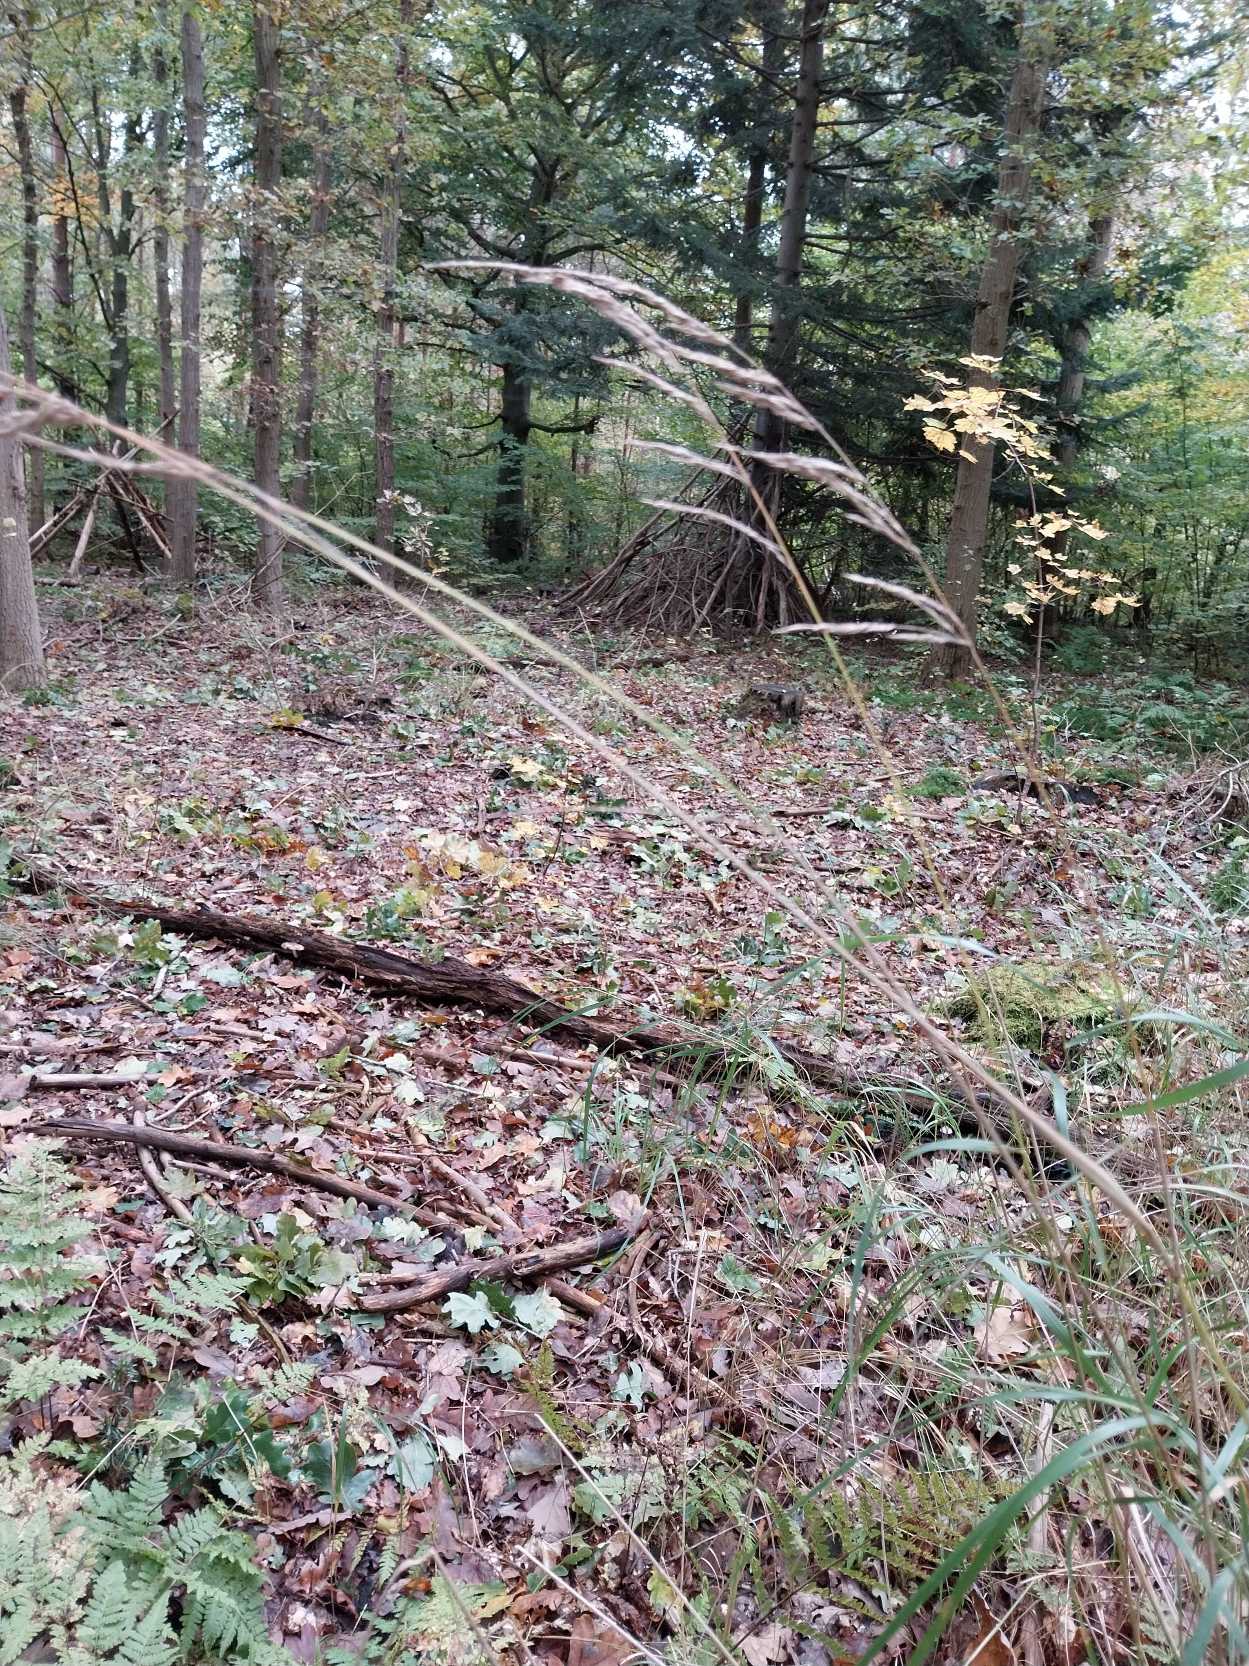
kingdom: Plantae
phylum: Tracheophyta
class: Liliopsida
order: Poales
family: Poaceae
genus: Calamagrostis
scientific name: Calamagrostis canescens
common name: Eng-rørhvene
